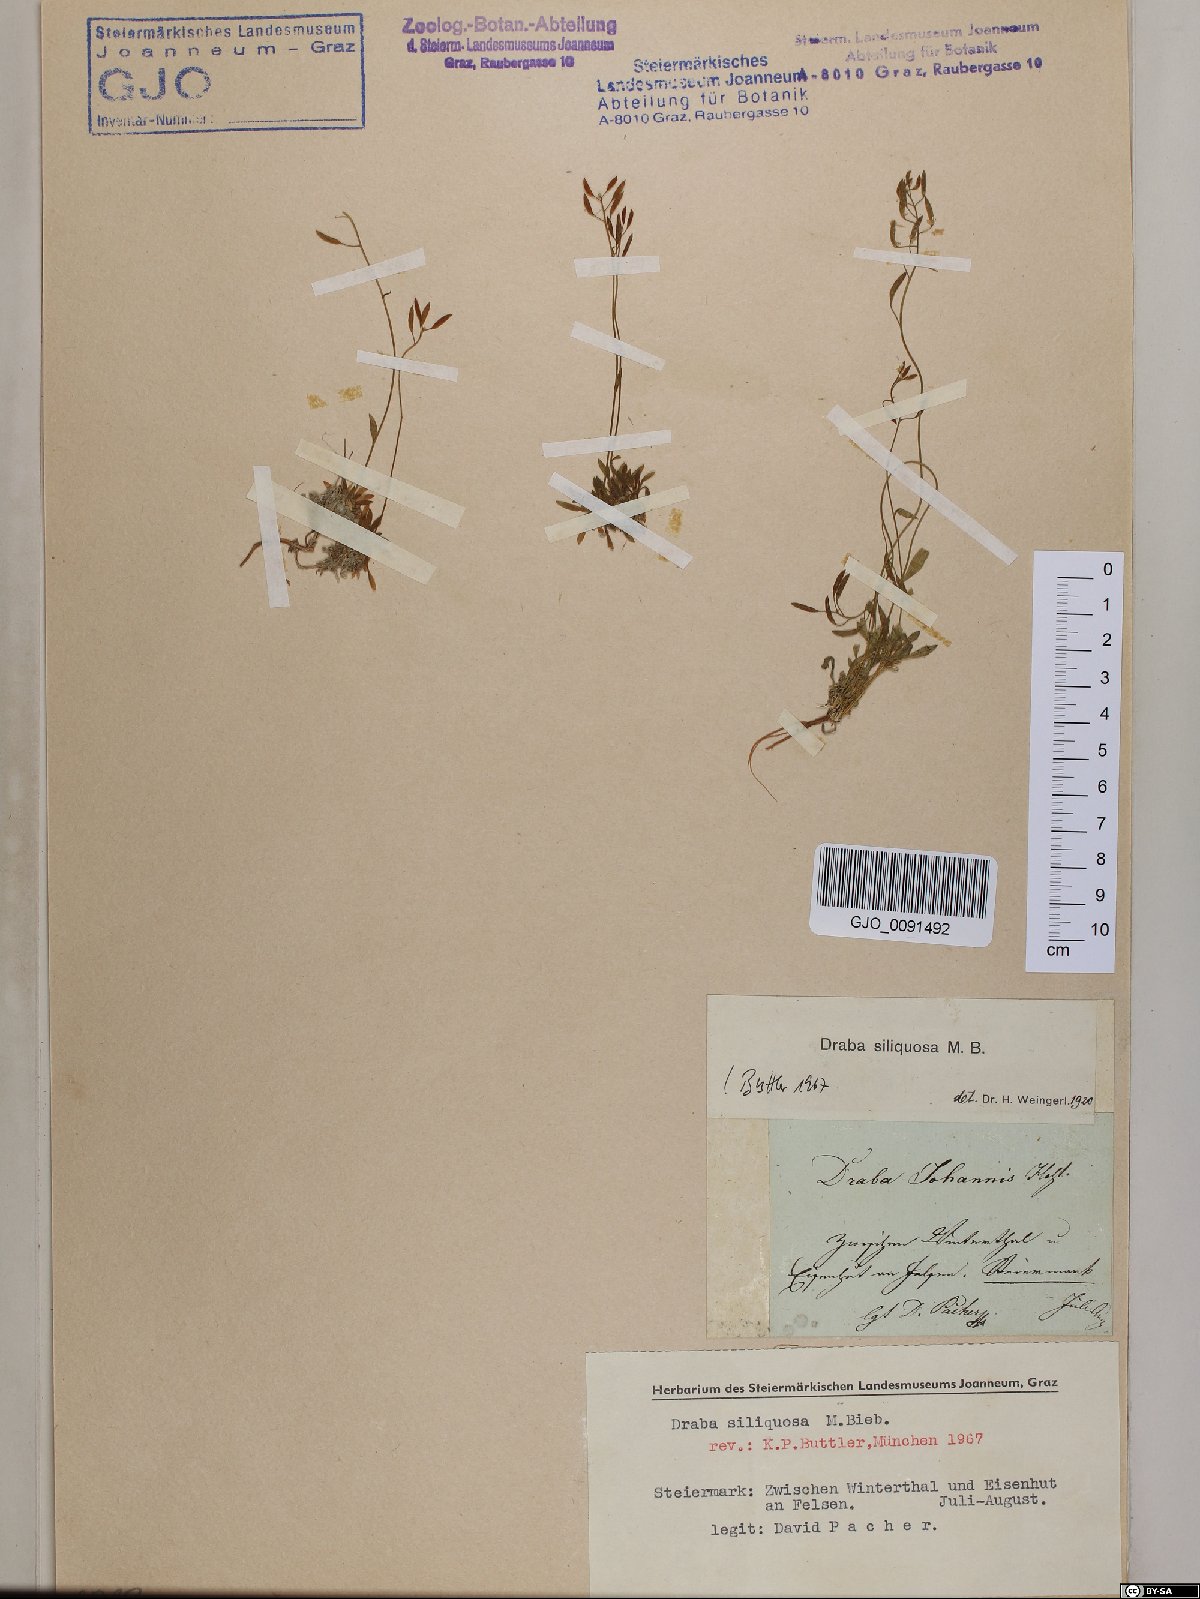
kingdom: Plantae
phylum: Tracheophyta
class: Magnoliopsida
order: Brassicales
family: Brassicaceae
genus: Draba
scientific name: Draba siliquosa
